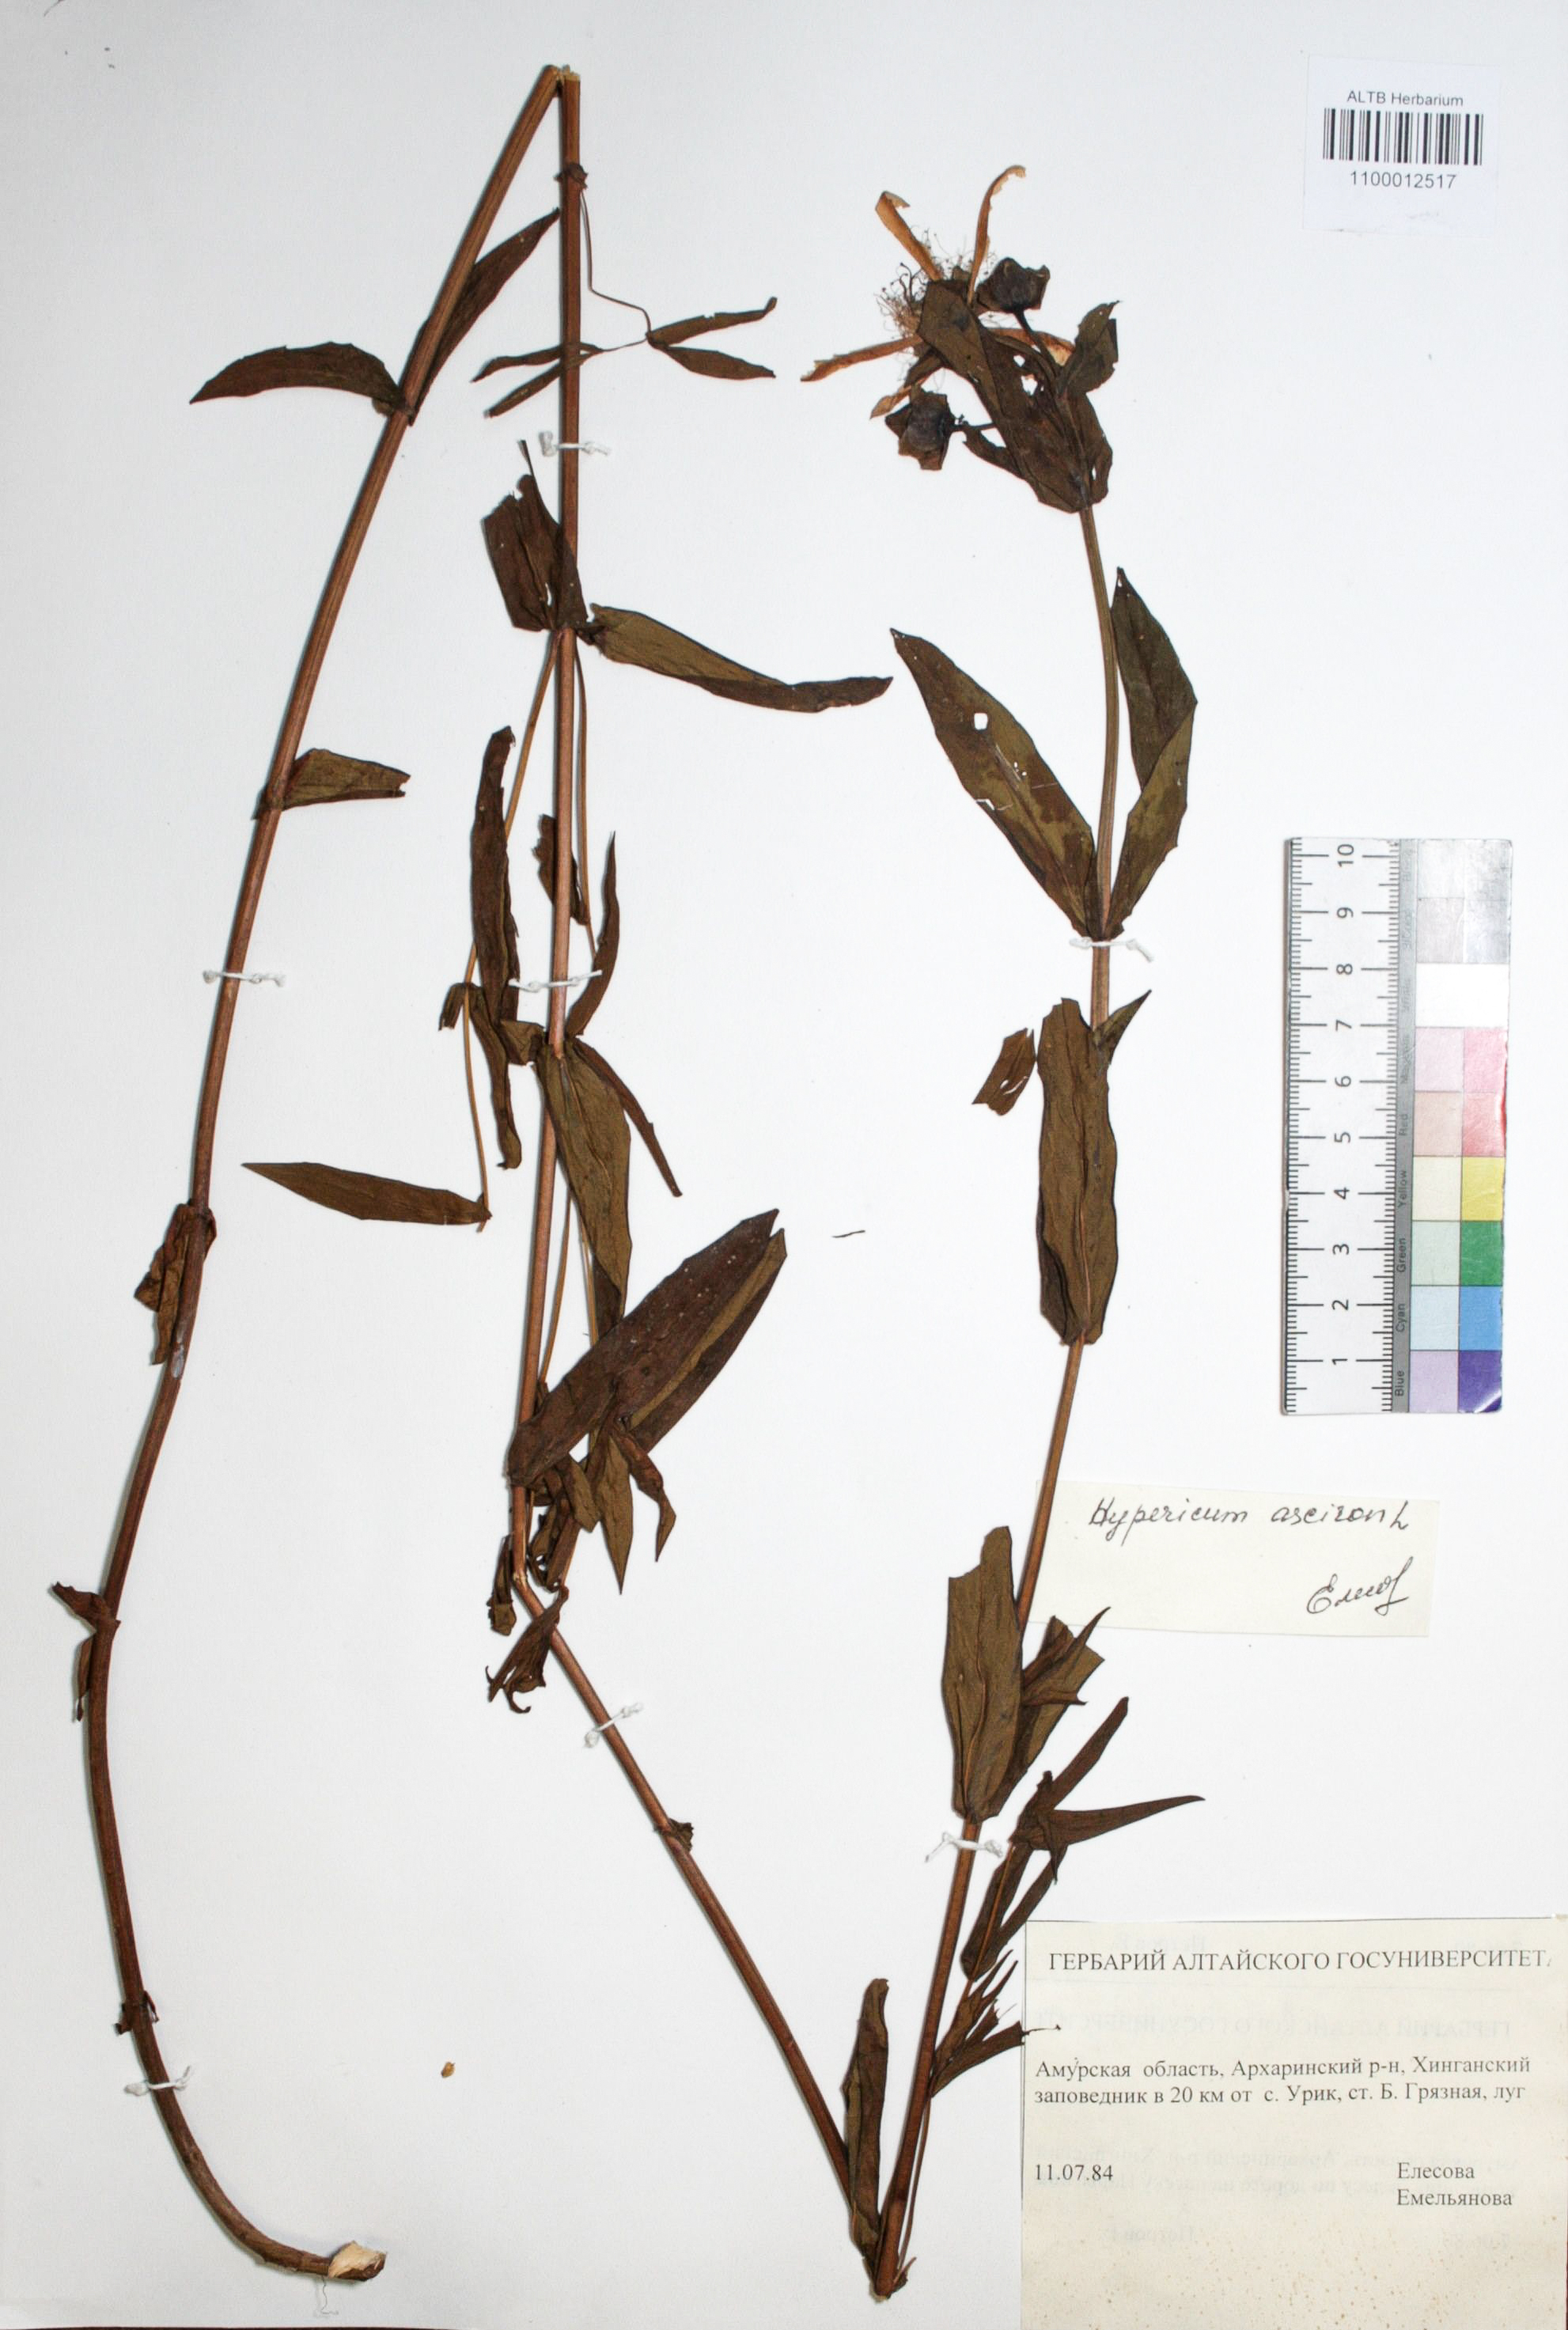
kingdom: Plantae
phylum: Tracheophyta
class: Magnoliopsida
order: Malpighiales
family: Hypericaceae
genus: Hypericum
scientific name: Hypericum ascyron
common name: Giant st. john's-wort
